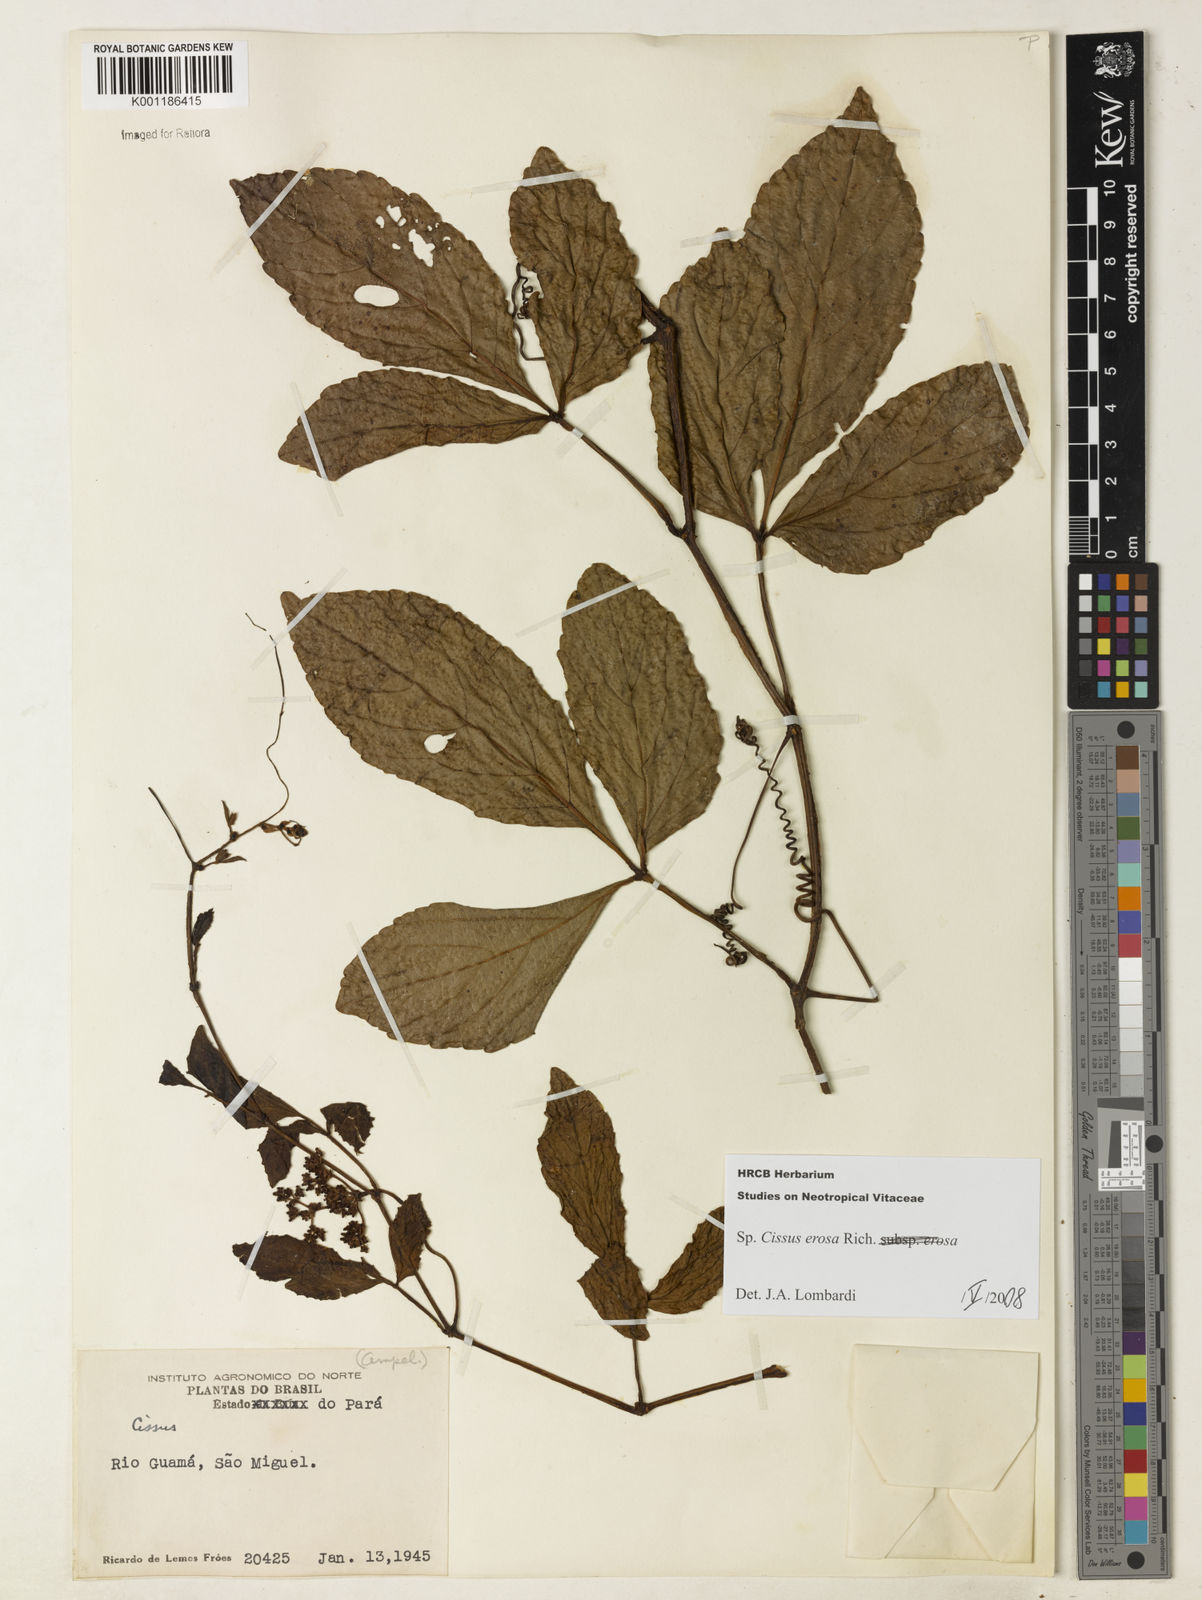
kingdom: Plantae
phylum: Tracheophyta
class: Magnoliopsida
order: Vitales
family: Vitaceae
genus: Cissus
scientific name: Cissus erosa
